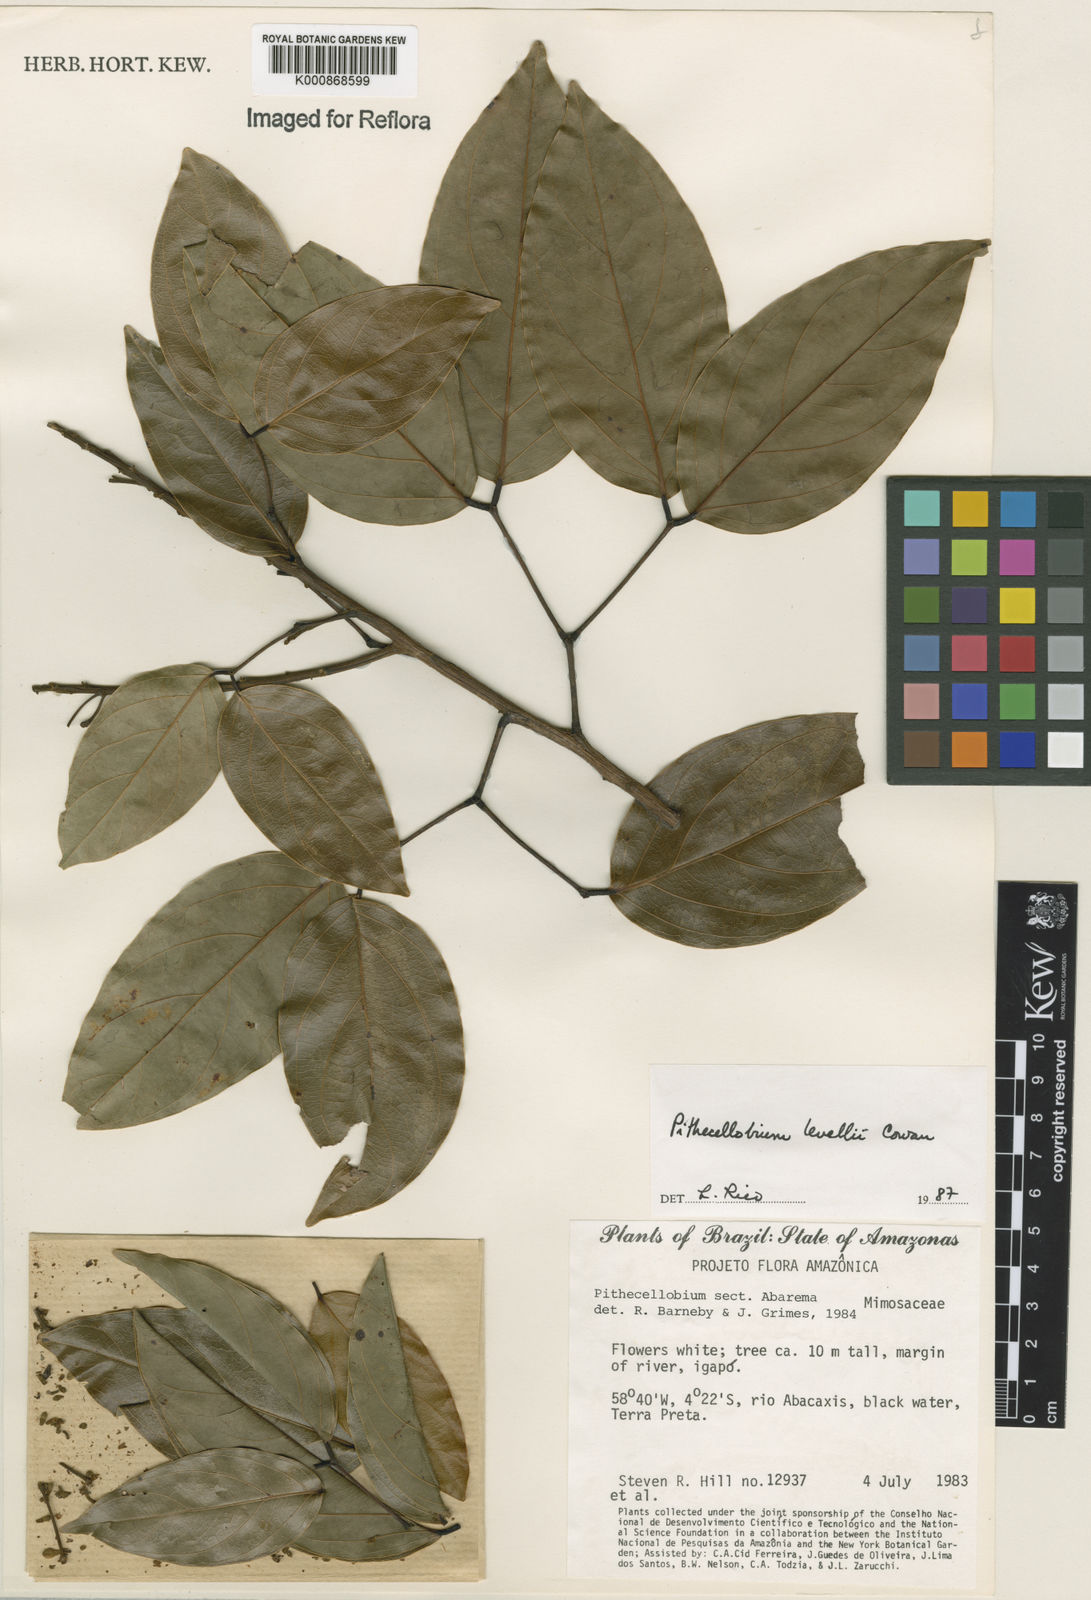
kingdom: Plantae
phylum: Tracheophyta
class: Magnoliopsida
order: Fabales
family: Fabaceae
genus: Abarema
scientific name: Abarema levelii
